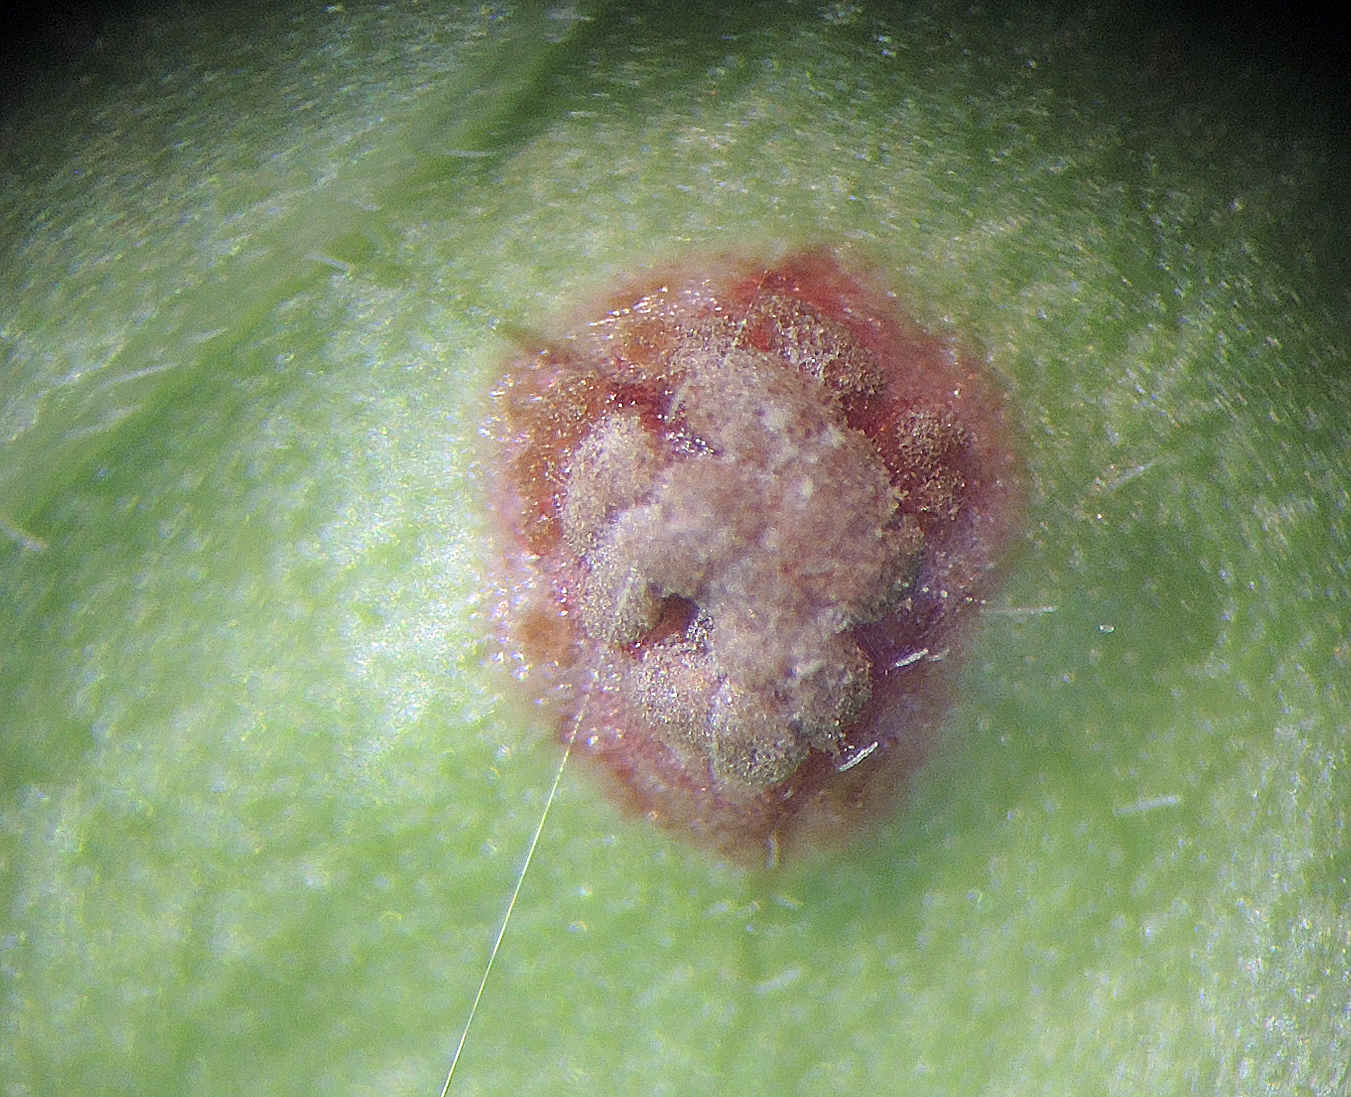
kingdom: Fungi
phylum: Basidiomycota
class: Pucciniomycetes
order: Pucciniales
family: Pucciniaceae
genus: Puccinia
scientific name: Puccinia circaeae
